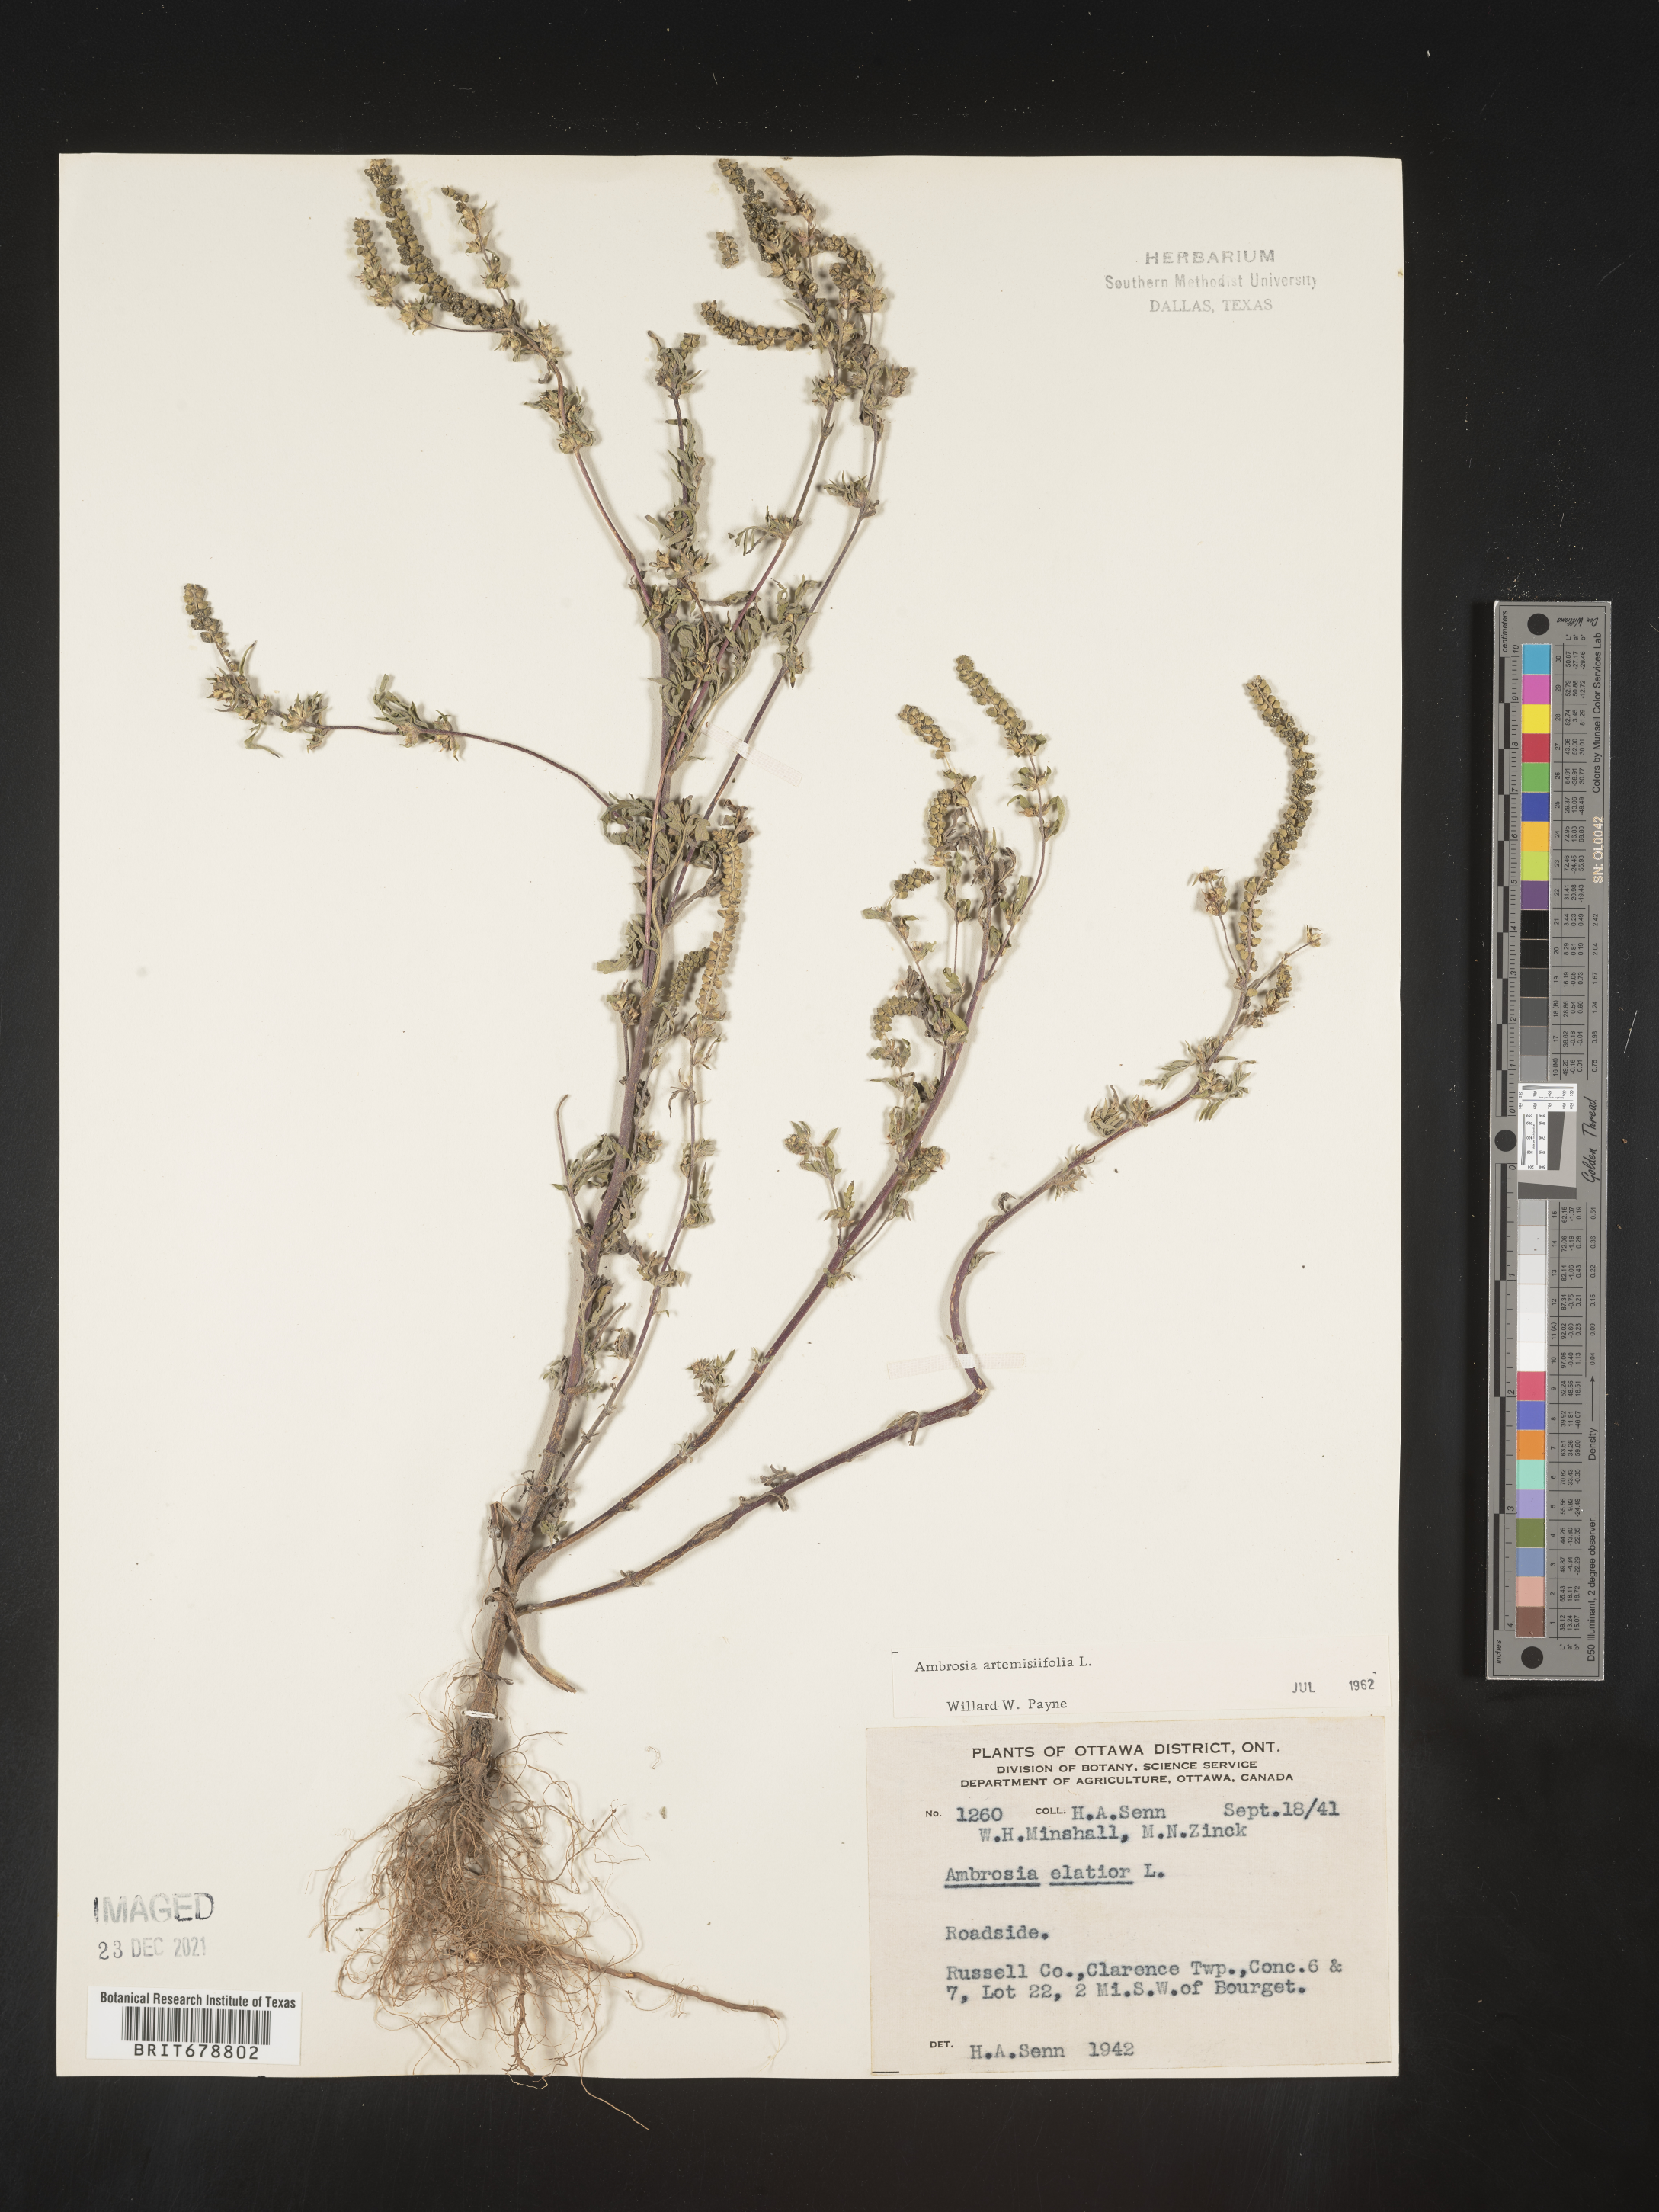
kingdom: Plantae
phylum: Tracheophyta
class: Magnoliopsida
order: Asterales
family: Asteraceae
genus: Ambrosia
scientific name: Ambrosia artemisiifolia
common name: Annual ragweed
